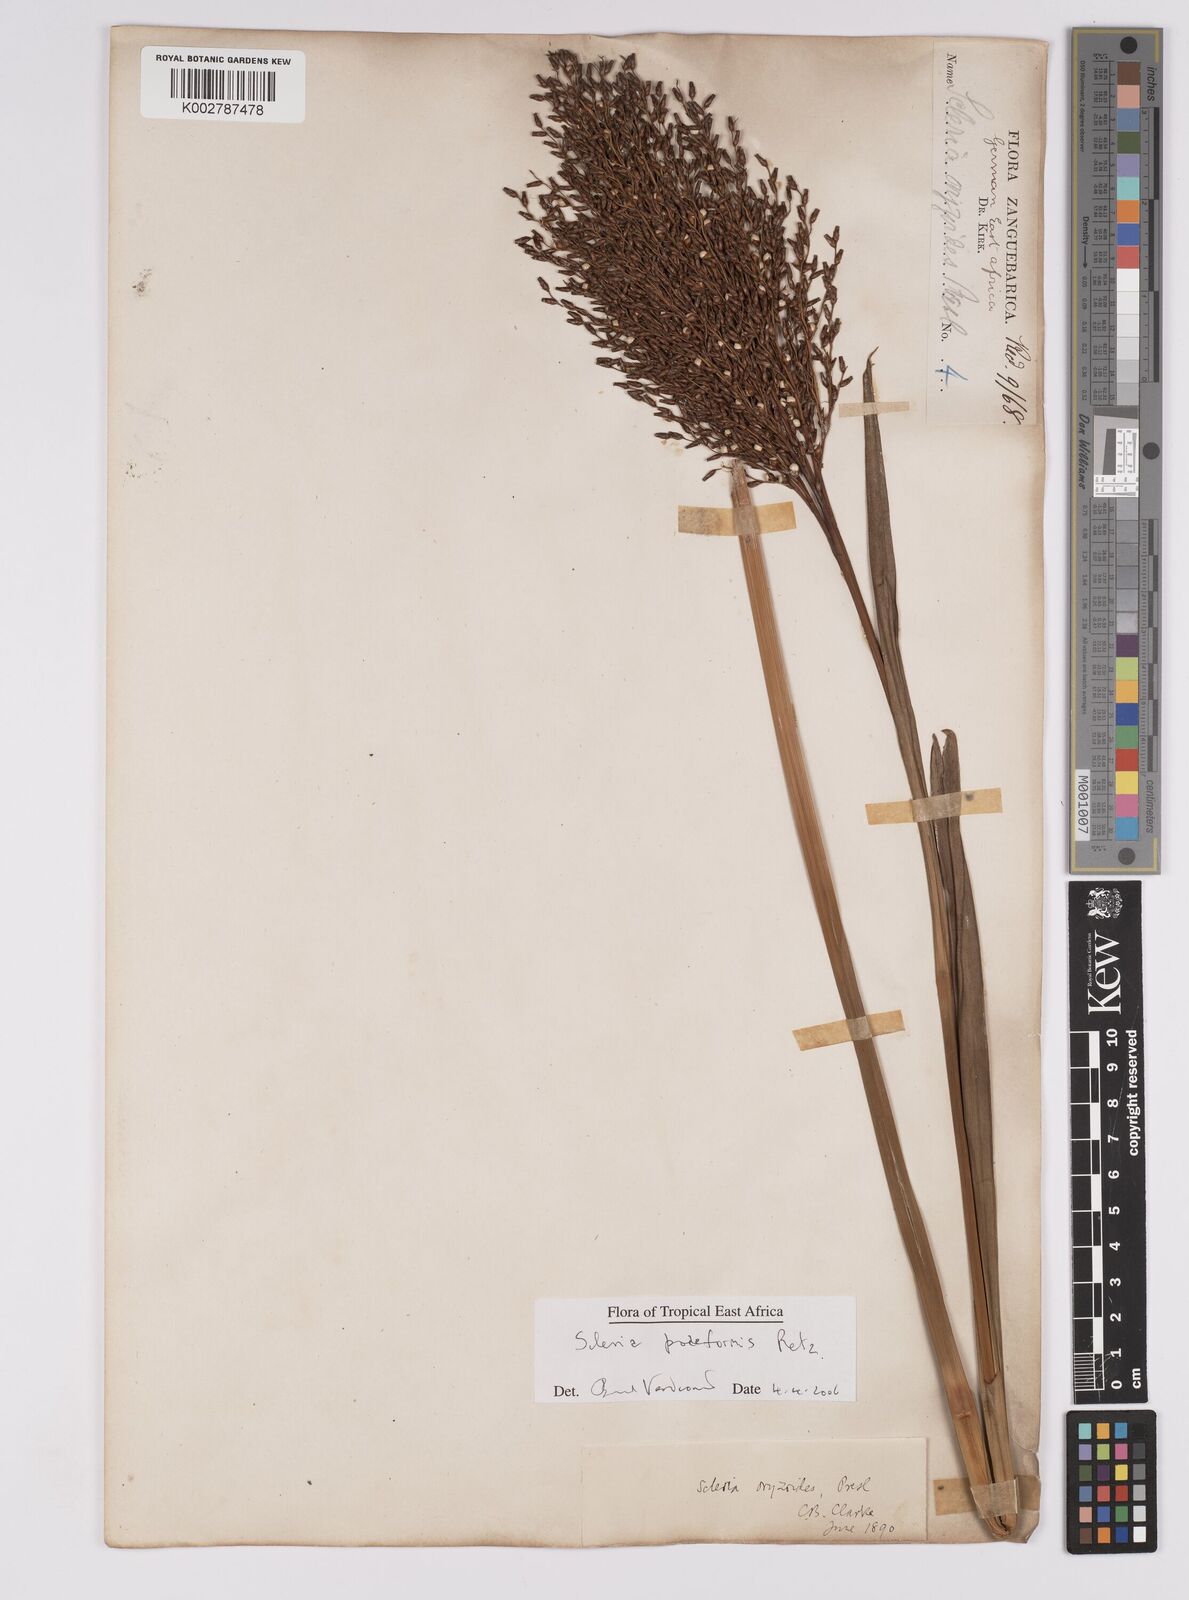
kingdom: Plantae
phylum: Tracheophyta
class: Liliopsida
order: Poales
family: Cyperaceae
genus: Scleria
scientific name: Scleria poiformis
